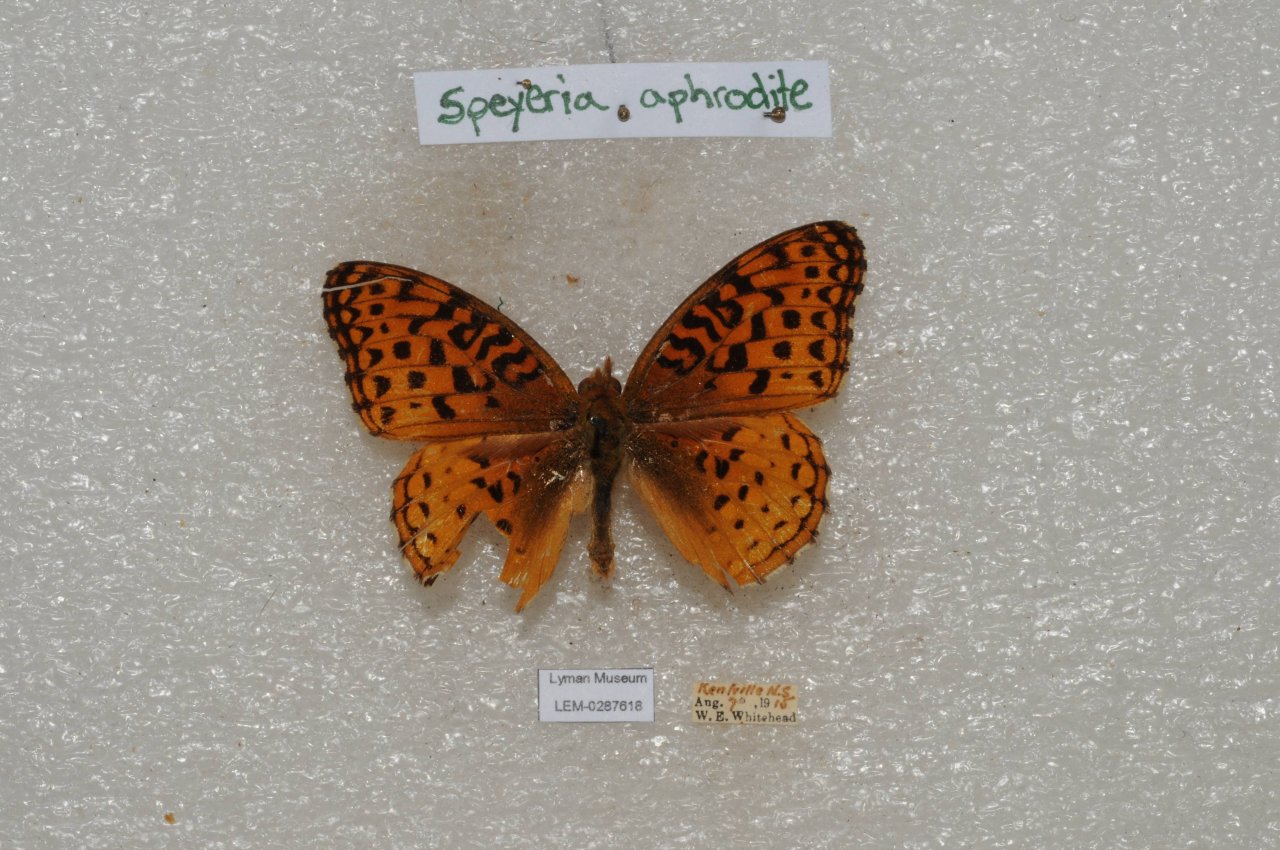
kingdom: Animalia
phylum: Arthropoda
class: Insecta
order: Lepidoptera
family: Nymphalidae
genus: Speyeria
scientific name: Speyeria aphrodite
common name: Aphrodite Fritillary
